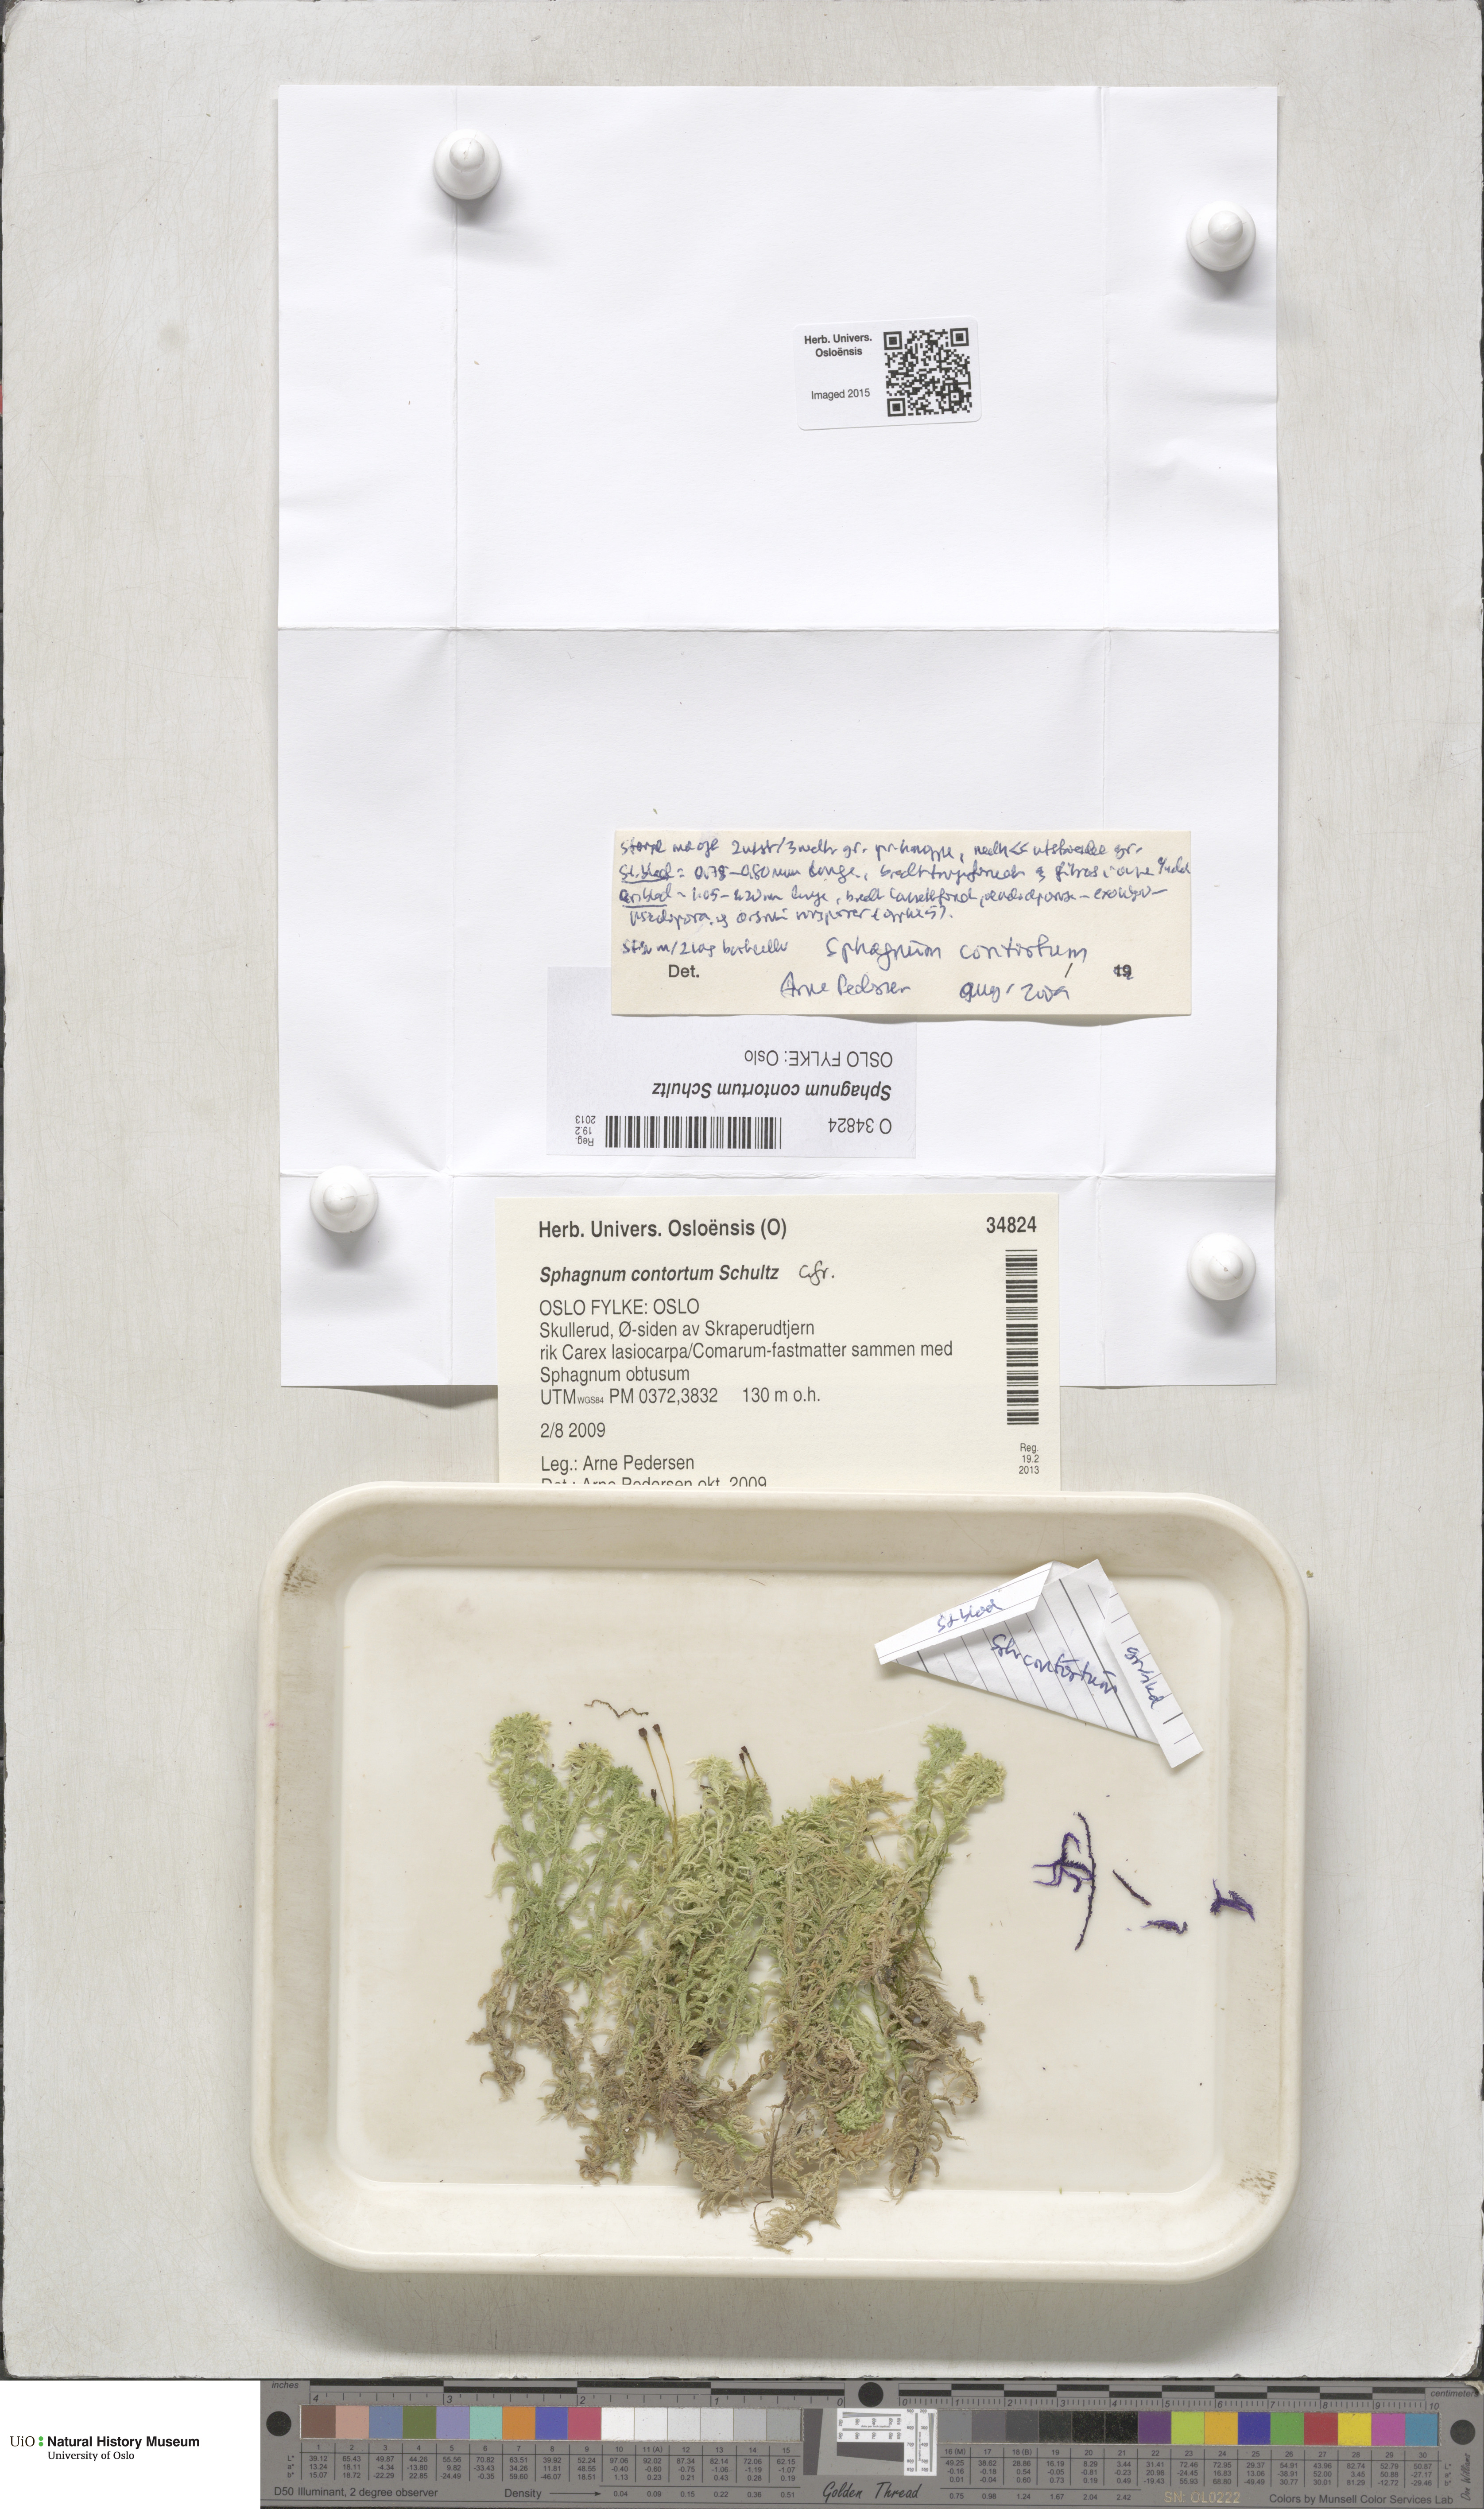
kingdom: Plantae
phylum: Bryophyta
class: Sphagnopsida
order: Sphagnales
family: Sphagnaceae
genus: Sphagnum
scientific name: Sphagnum contortum
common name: Twisted peat moss
